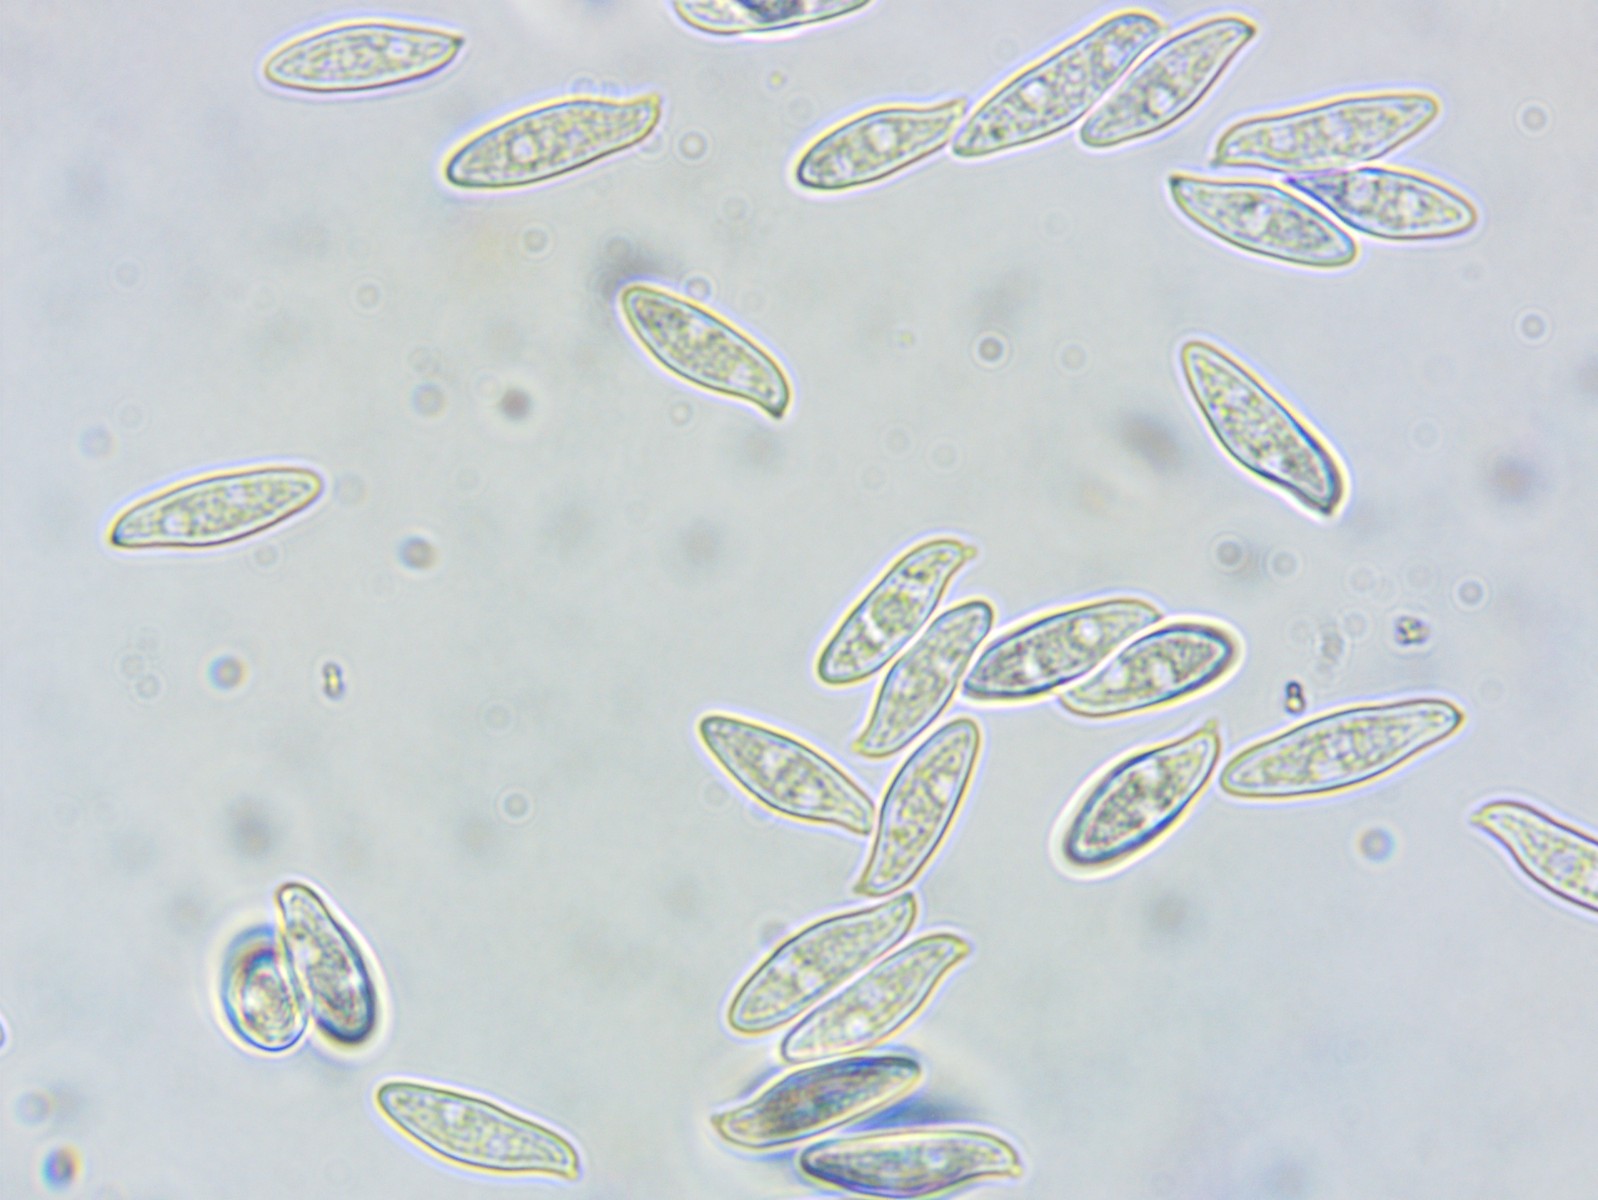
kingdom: Fungi
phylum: Basidiomycota
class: Agaricomycetes
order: Agaricales
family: Agaricaceae
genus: Lepiota
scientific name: Lepiota magnispora
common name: gulfnugget parasolhat
